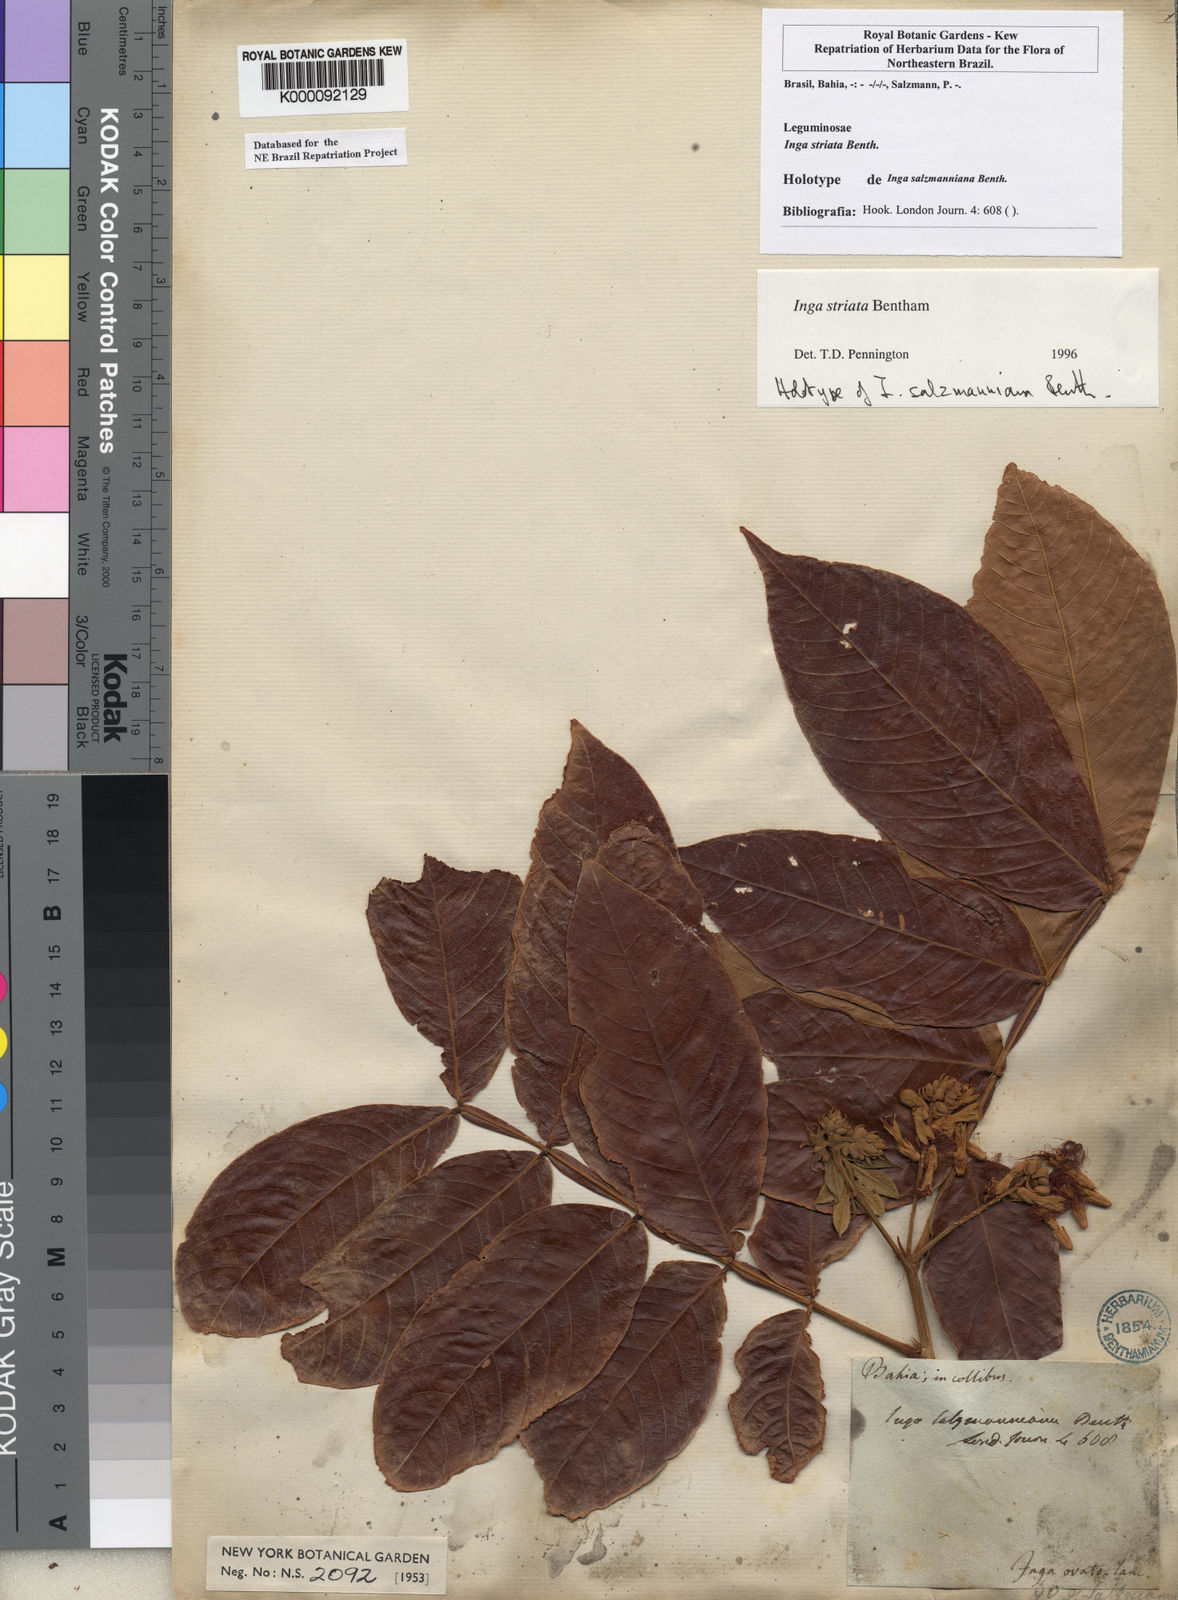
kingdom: Plantae
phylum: Tracheophyta
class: Magnoliopsida
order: Fabales
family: Fabaceae
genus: Inga
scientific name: Inga striata
